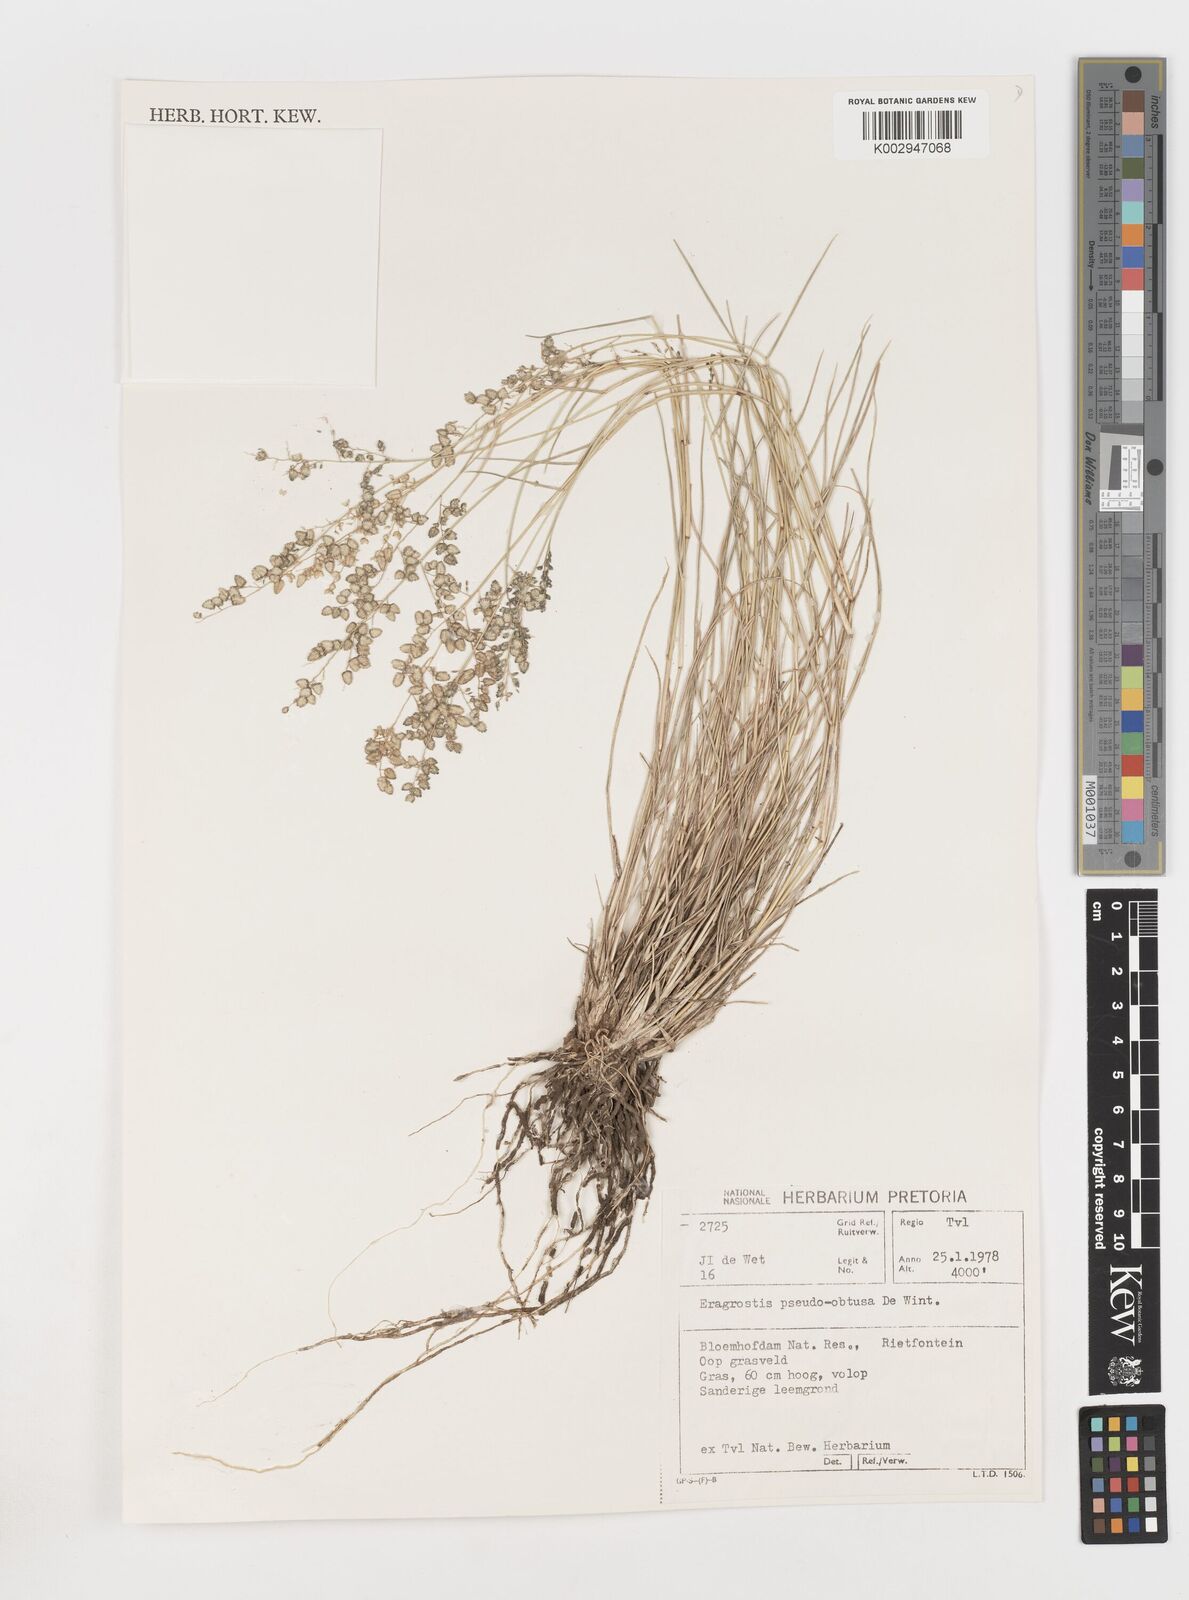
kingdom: Plantae
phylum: Tracheophyta
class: Liliopsida
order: Poales
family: Poaceae
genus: Eragrostis
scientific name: Eragrostis pseudobtusa
